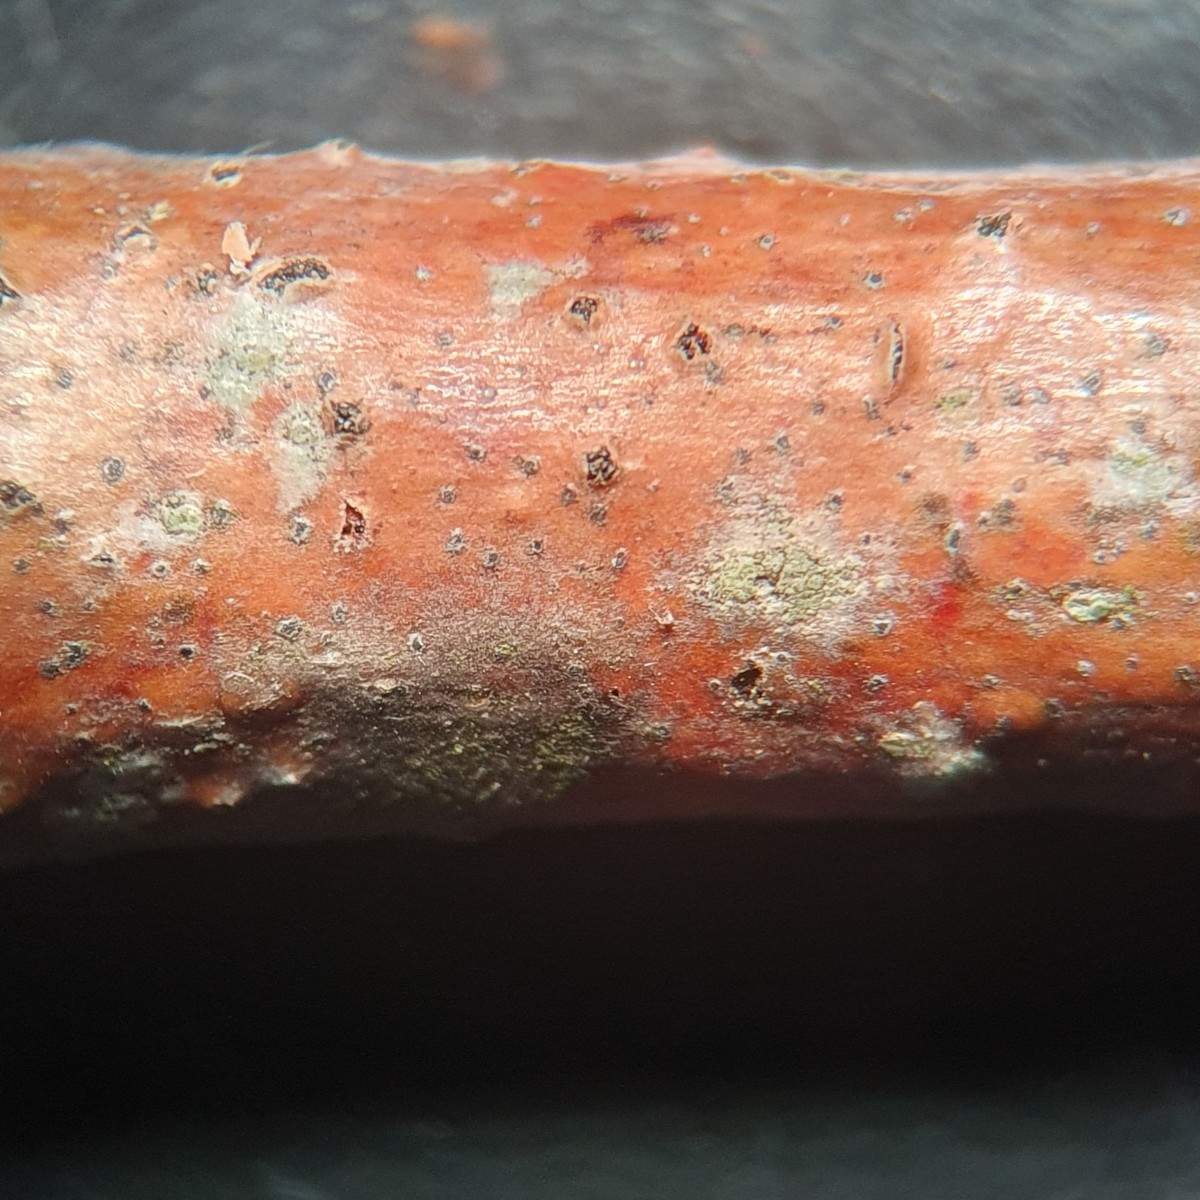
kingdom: Fungi
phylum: Ascomycota
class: Sordariomycetes
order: Diaporthales
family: Melanconidaceae
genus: Prosthecium
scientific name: Prosthecium platanoidis
